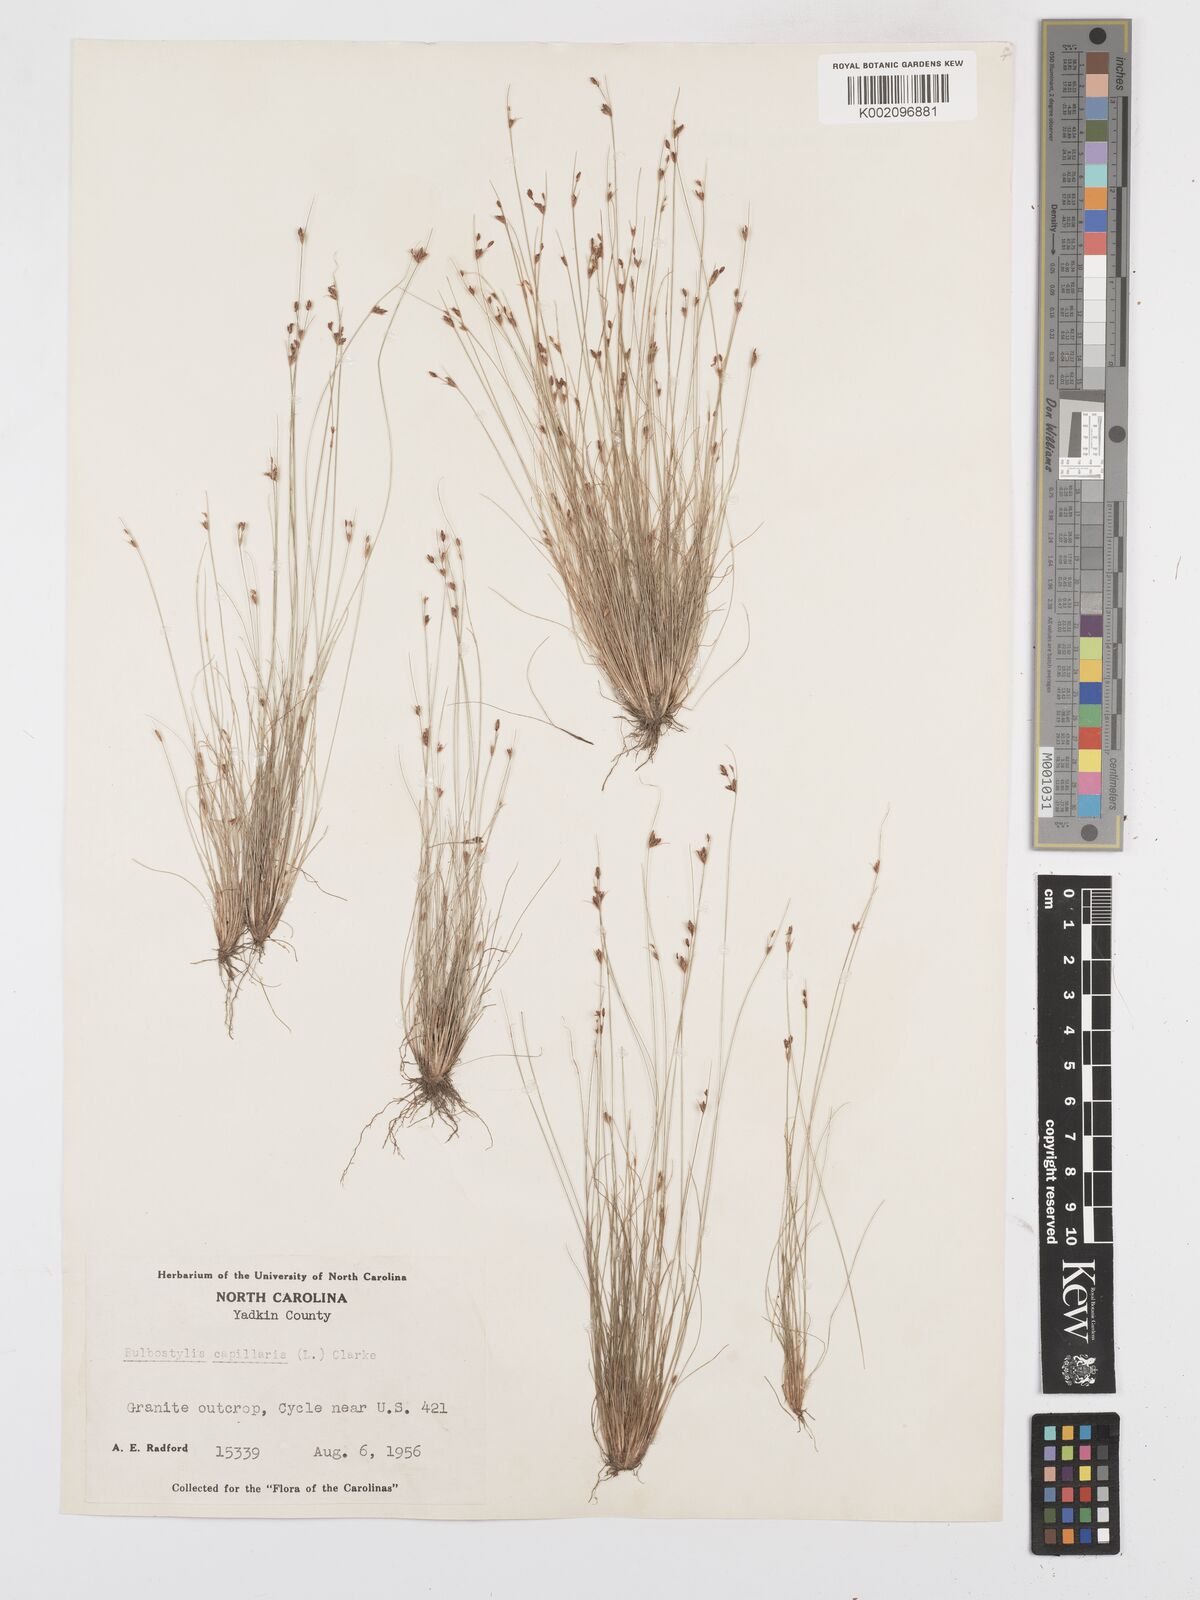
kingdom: Plantae
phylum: Tracheophyta
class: Liliopsida
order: Poales
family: Cyperaceae
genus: Bulbostylis
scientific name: Bulbostylis capillaris
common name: Densetuft hairsedge
